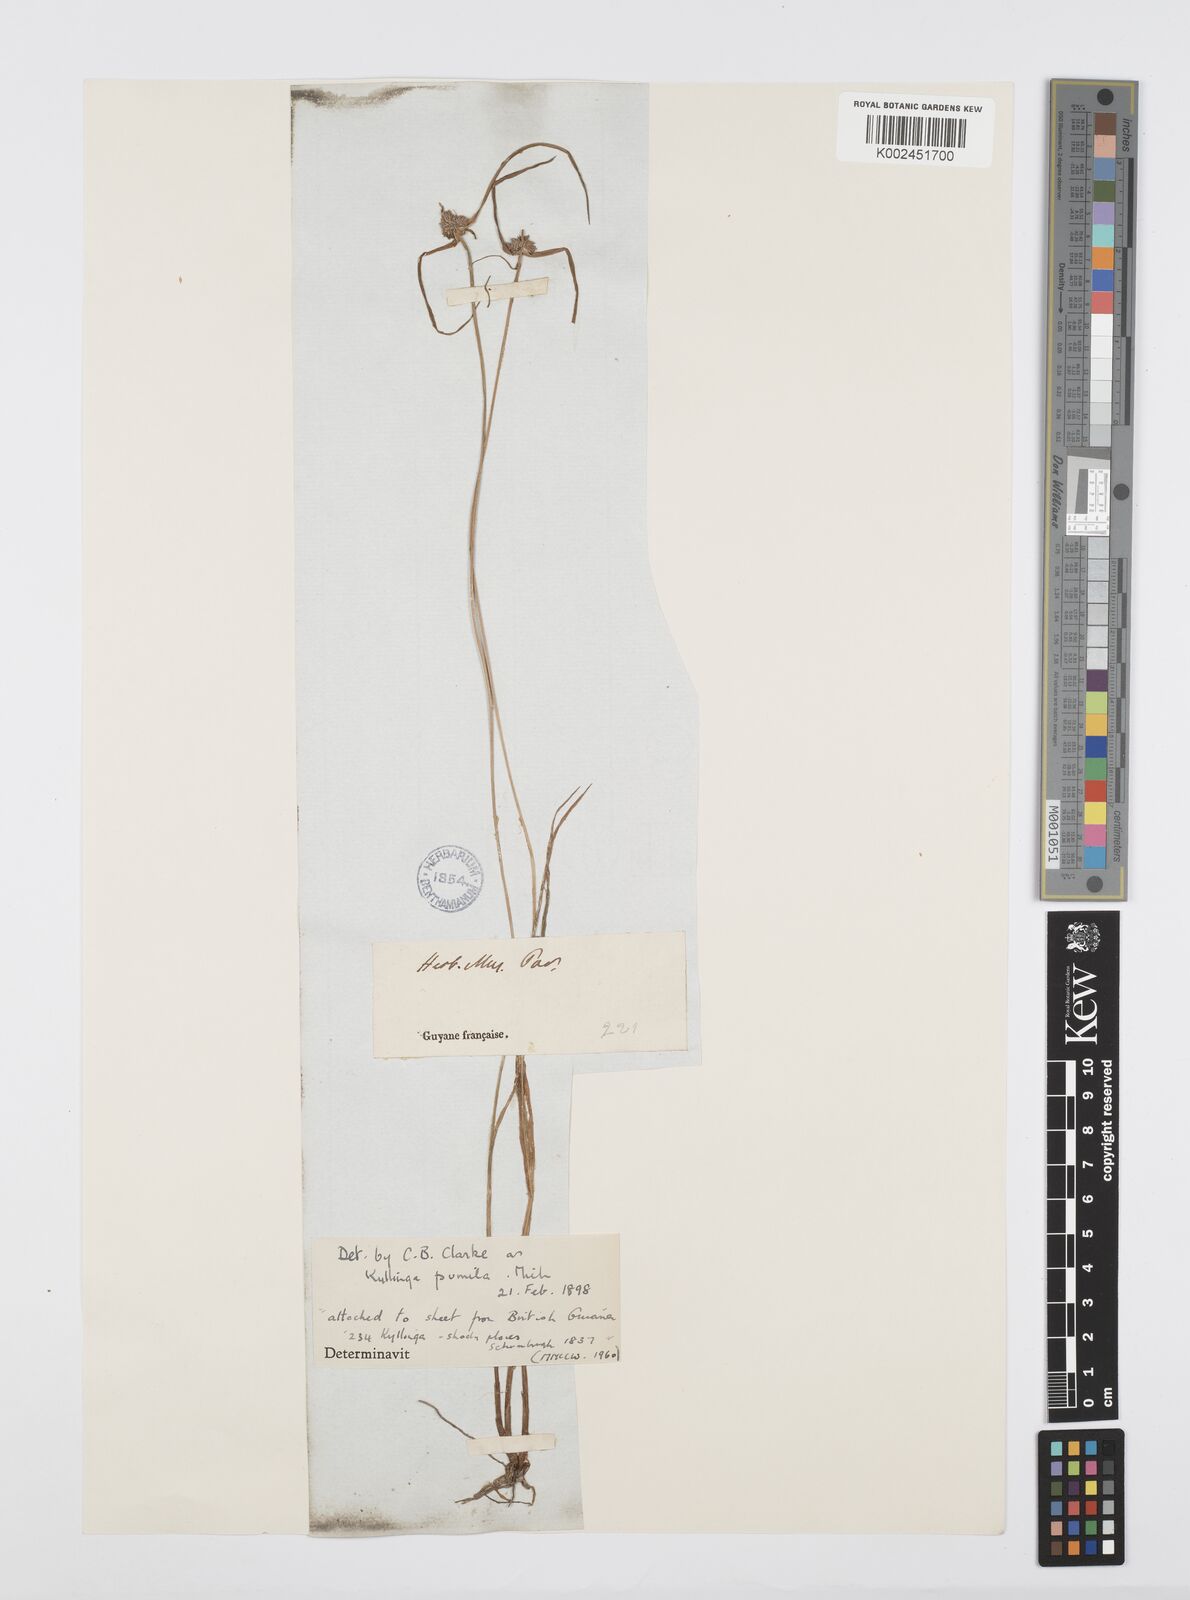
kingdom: Plantae
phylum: Tracheophyta
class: Liliopsida
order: Poales
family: Cyperaceae
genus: Cyperus
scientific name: Cyperus
